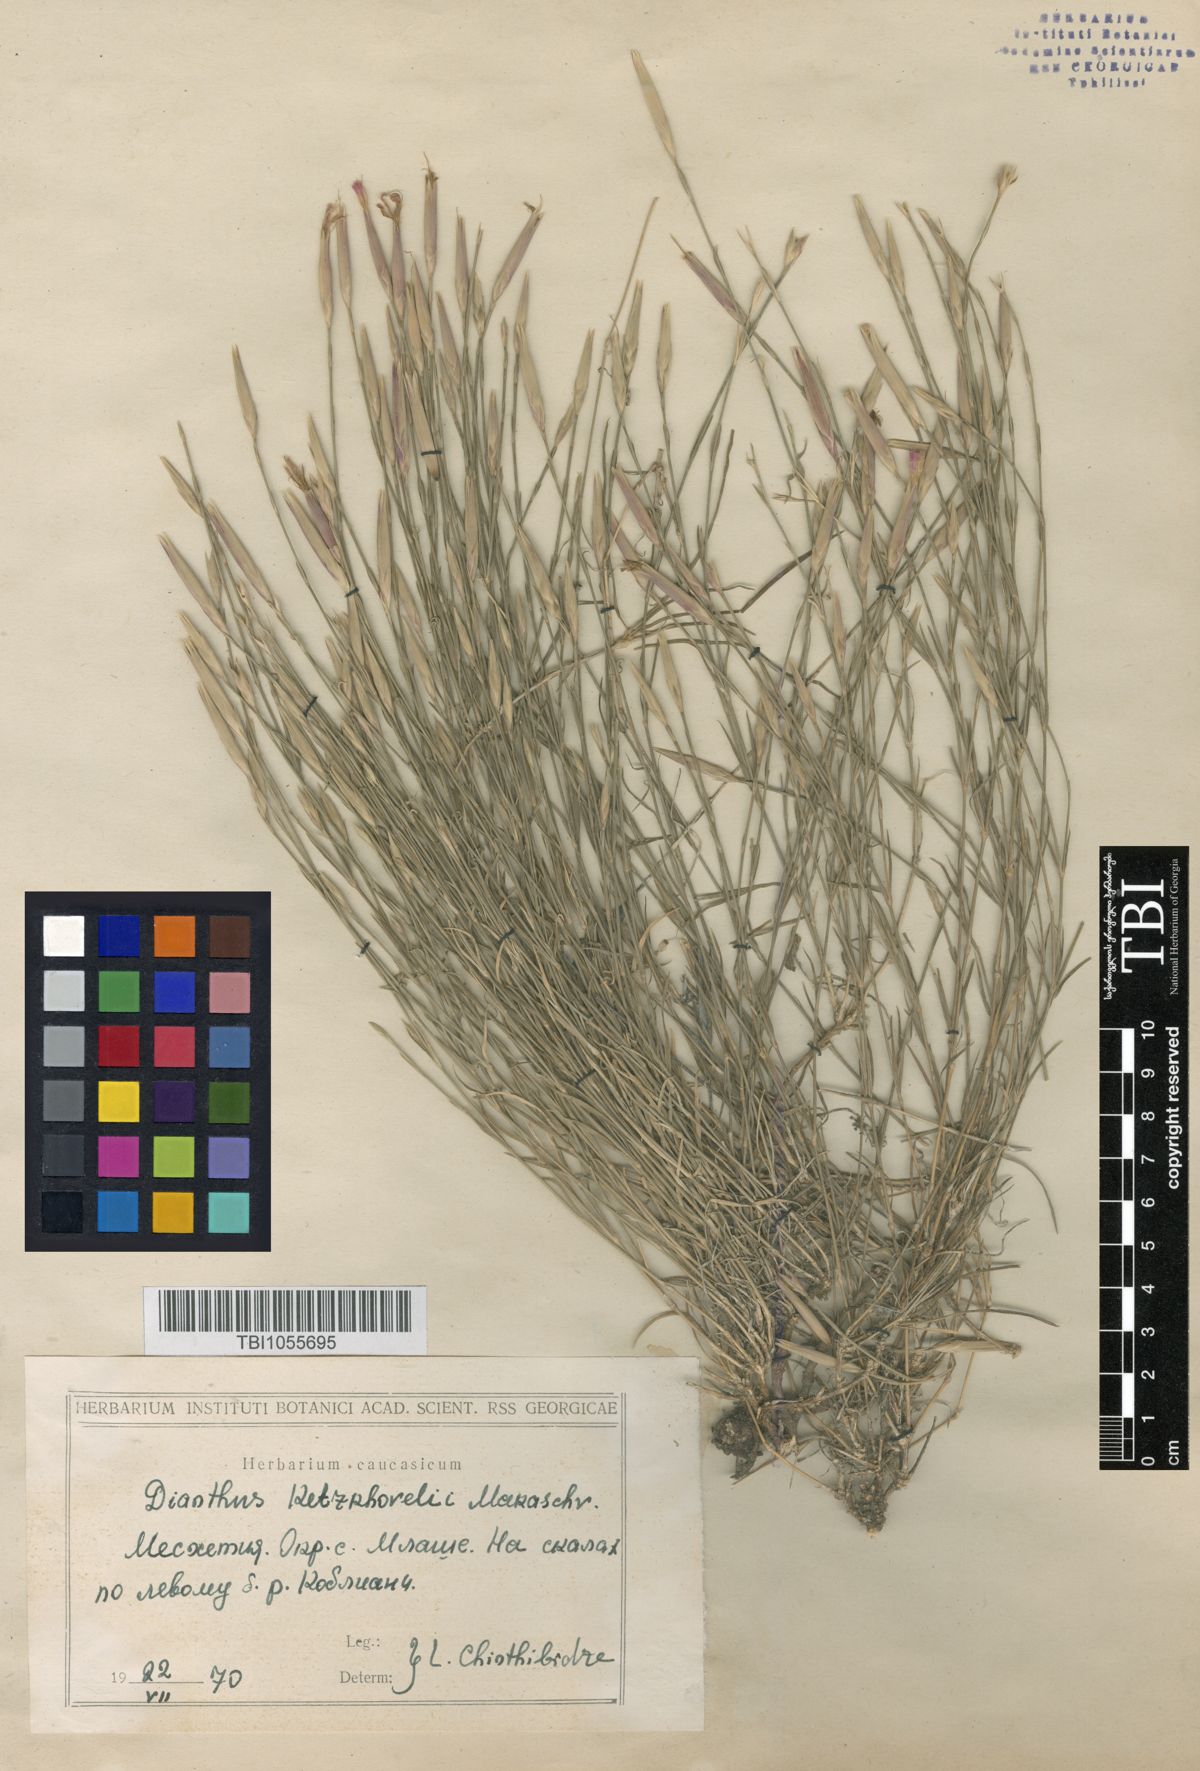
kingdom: Plantae
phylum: Tracheophyta
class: Magnoliopsida
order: Caryophyllales
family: Caryophyllaceae
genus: Dianthus
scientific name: Dianthus orientalis
